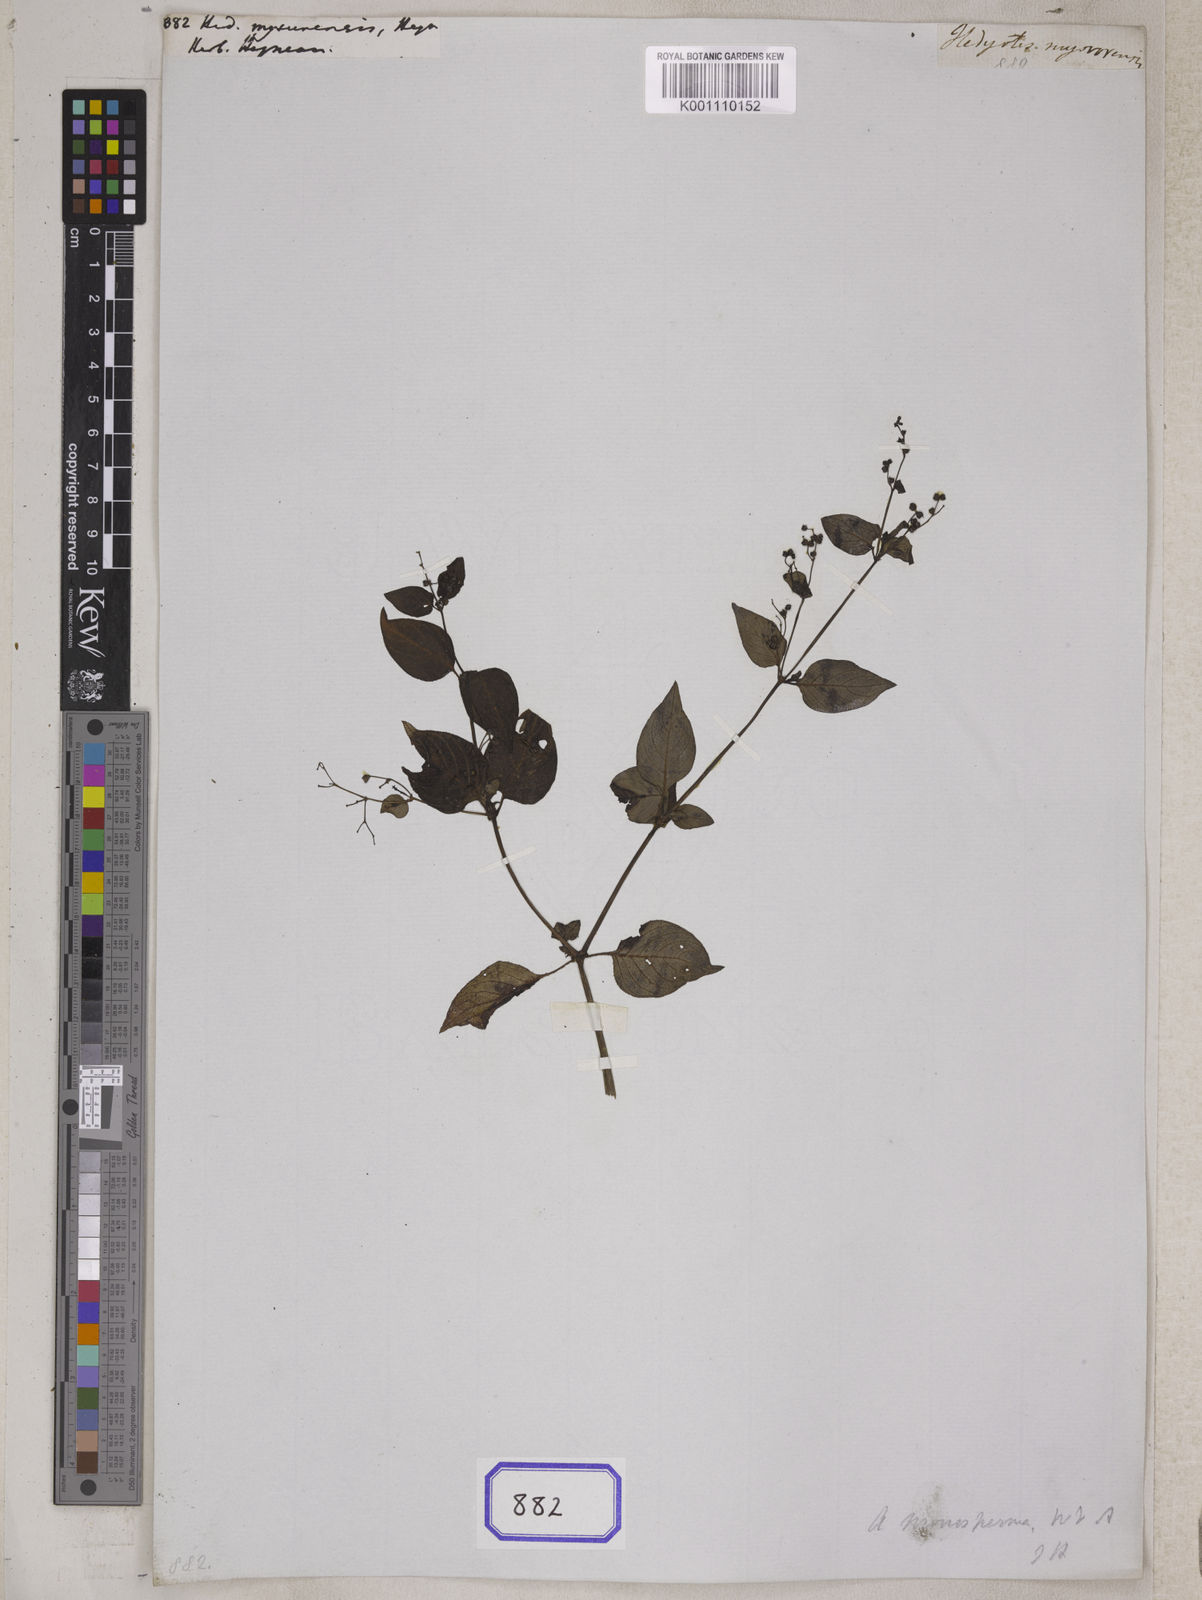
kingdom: Plantae
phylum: Tracheophyta
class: Magnoliopsida
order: Gentianales
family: Rubiaceae
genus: Hedyotis
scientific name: Hedyotis
